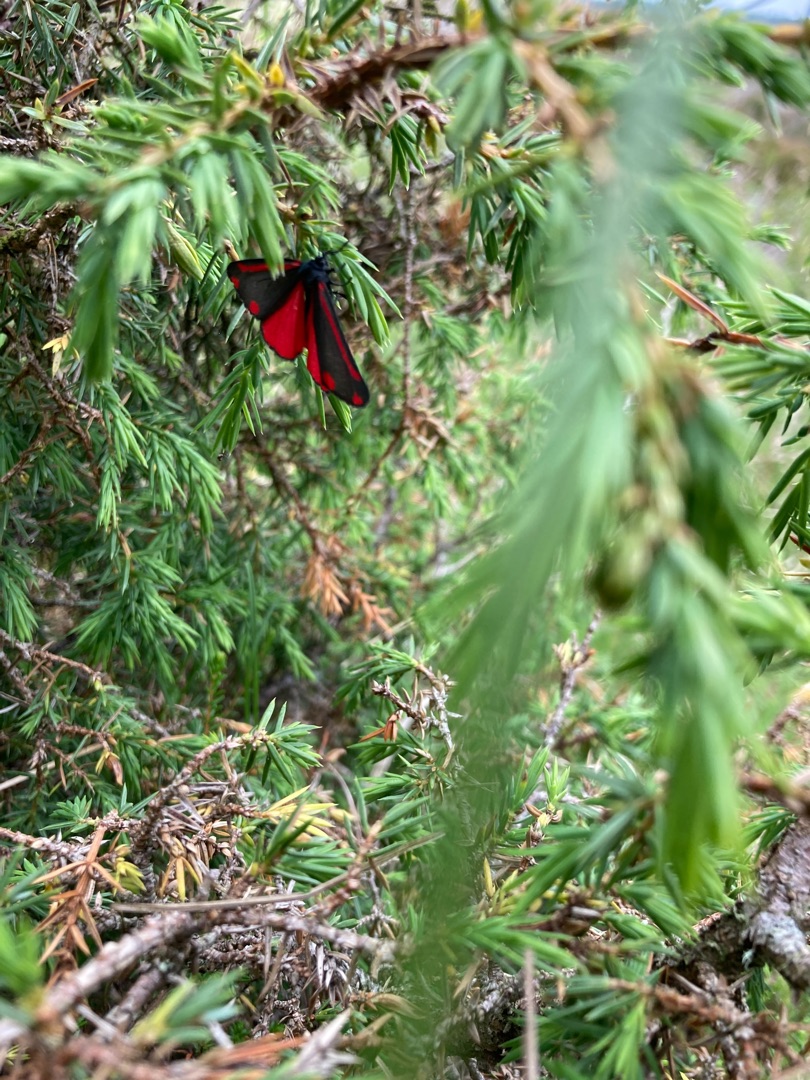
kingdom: Animalia
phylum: Arthropoda
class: Insecta
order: Lepidoptera
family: Erebidae
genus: Tyria
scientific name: Tyria jacobaeae
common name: Blodplet
